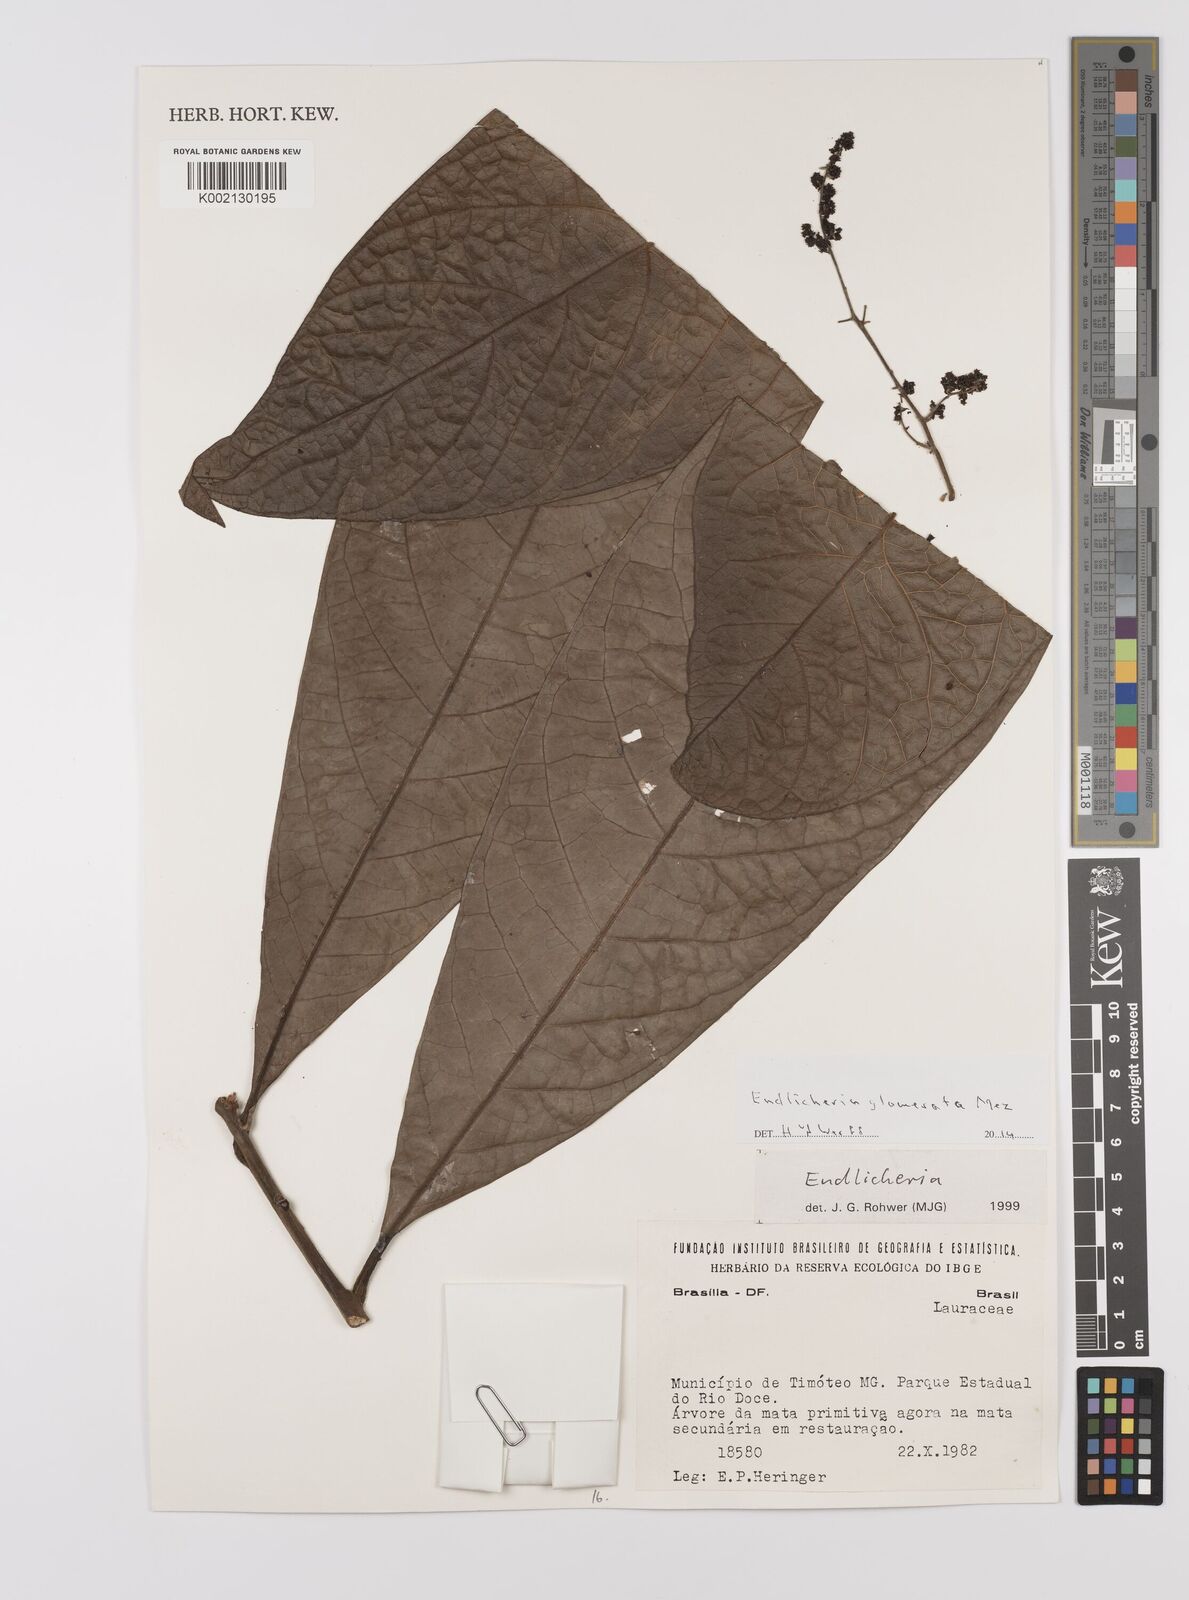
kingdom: Plantae
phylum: Tracheophyta
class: Magnoliopsida
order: Laurales
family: Lauraceae
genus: Endlicheria
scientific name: Endlicheria glomerata
